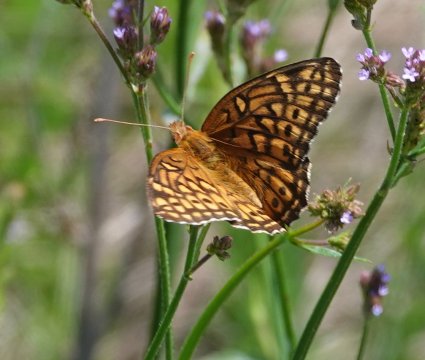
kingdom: Animalia
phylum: Arthropoda
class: Insecta
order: Lepidoptera
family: Nymphalidae
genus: Euptoieta
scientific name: Euptoieta claudia
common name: Variegated Fritillary
